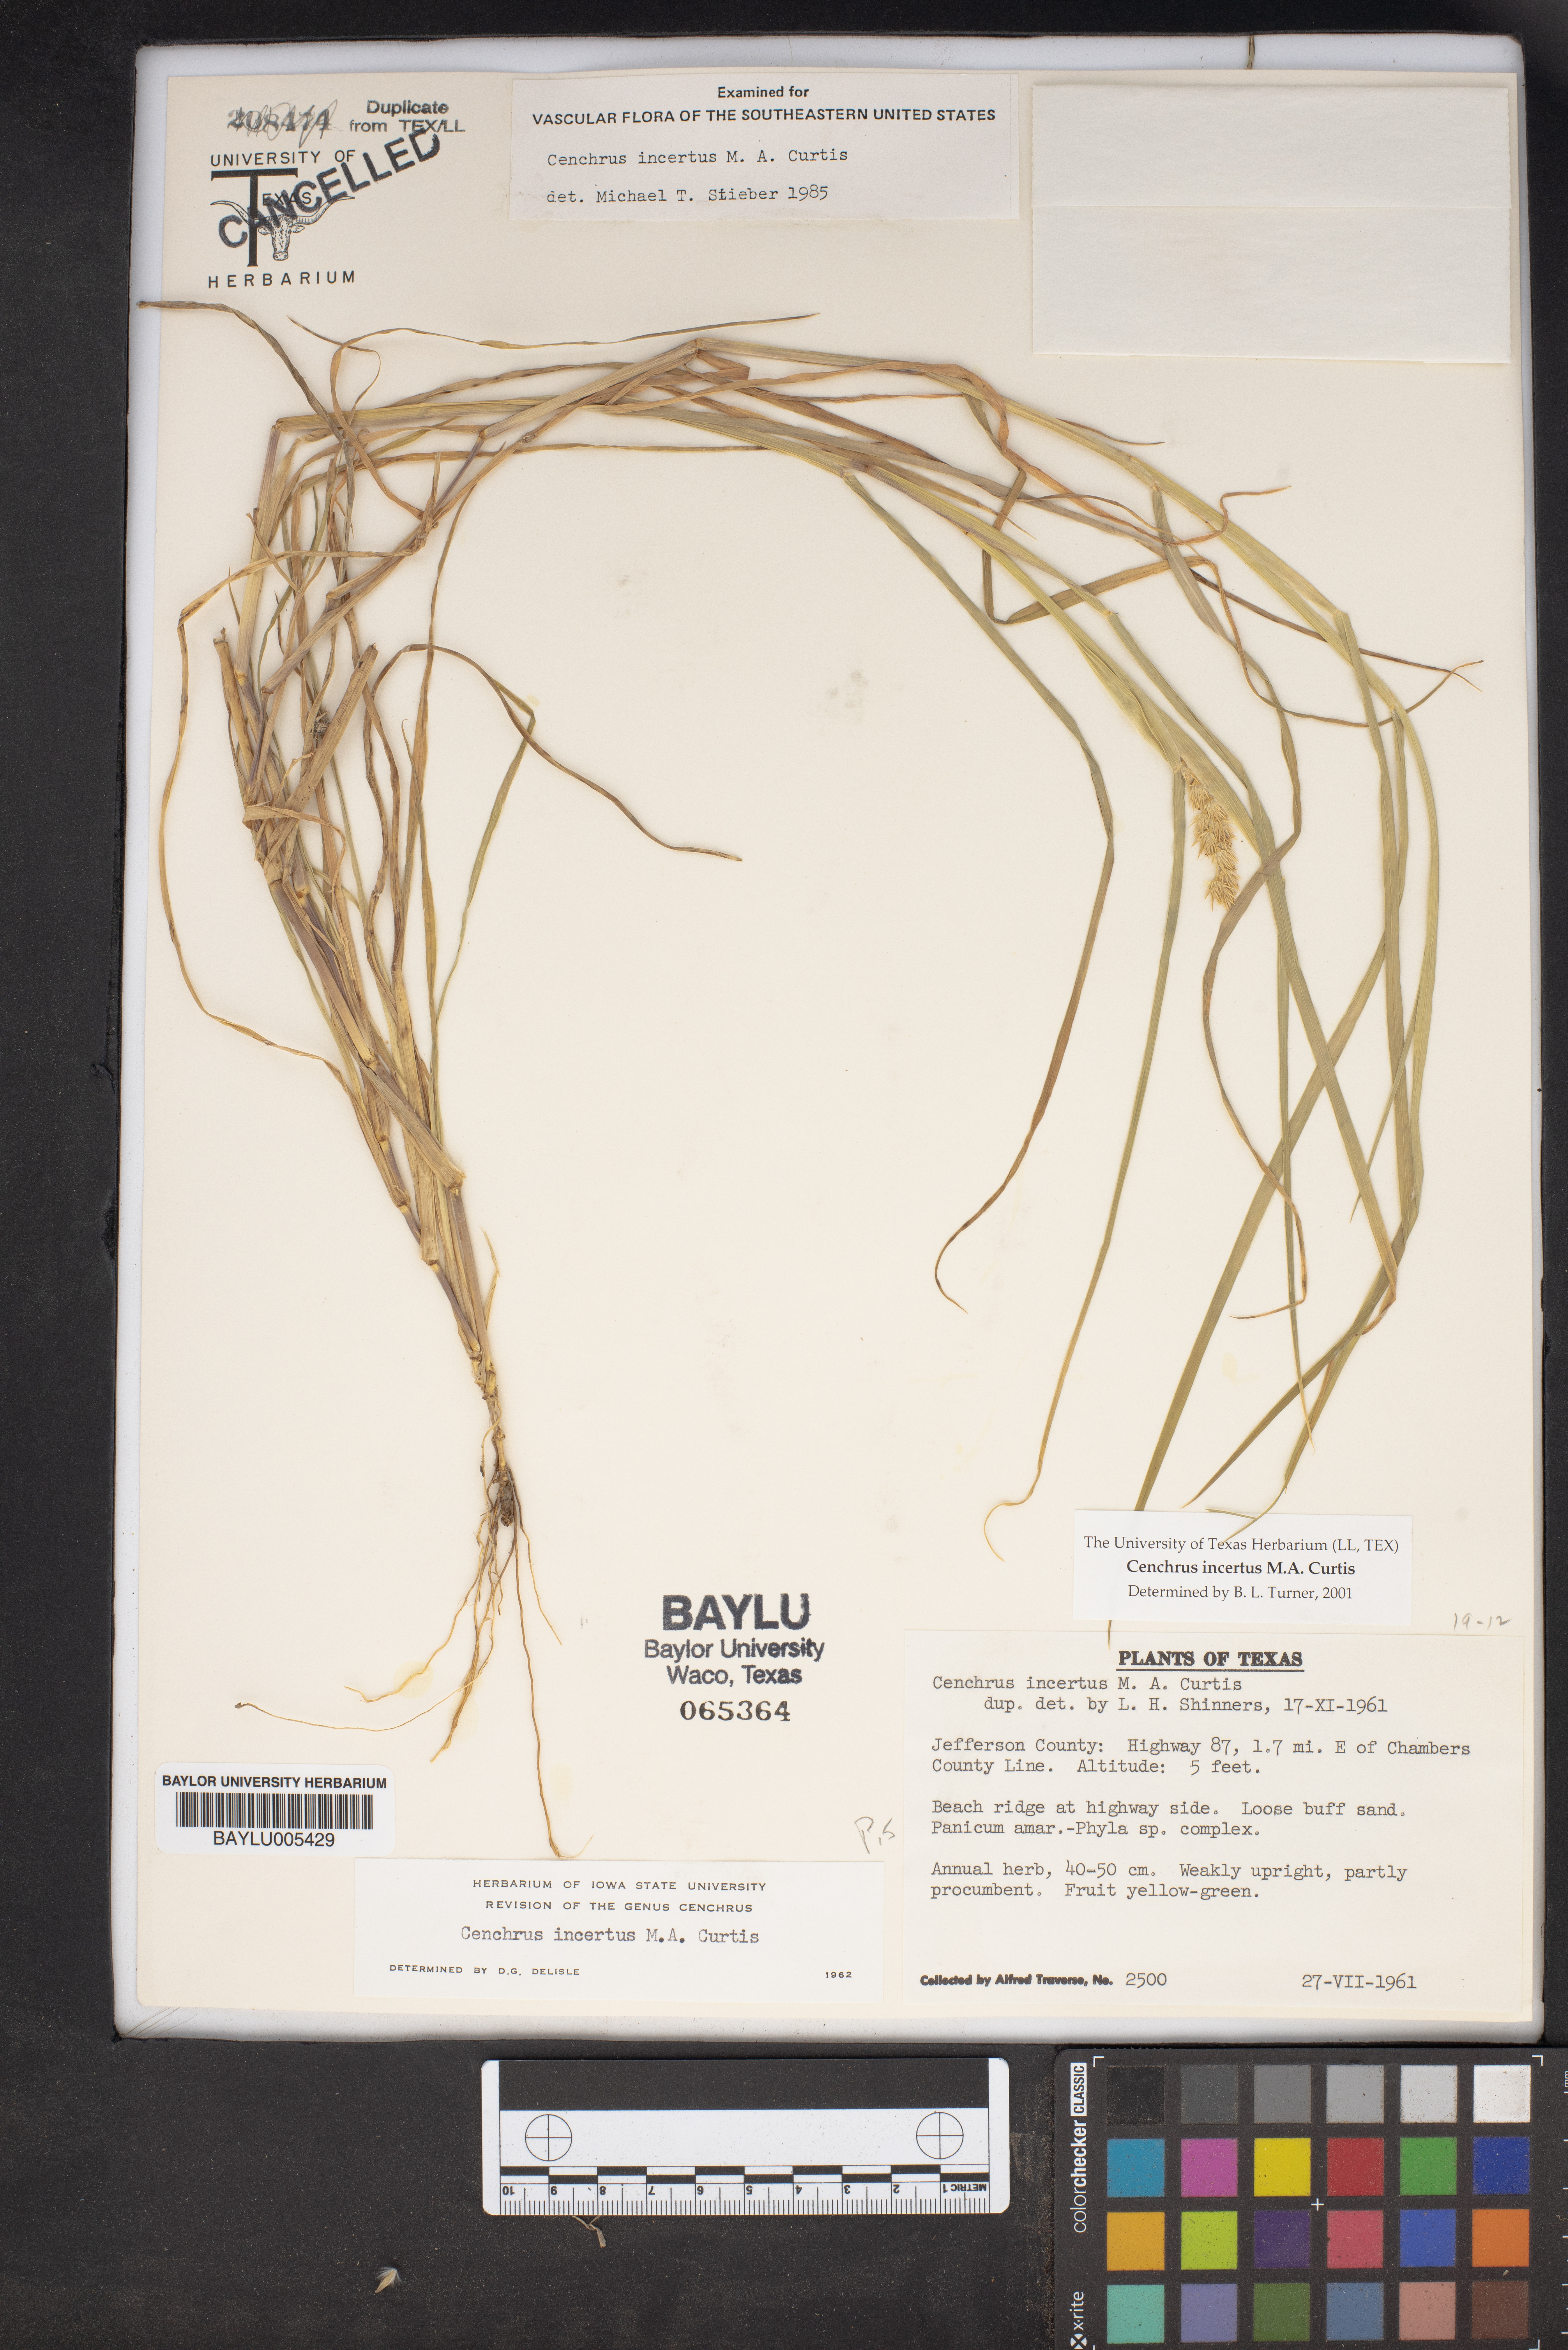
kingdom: Plantae
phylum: Tracheophyta
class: Liliopsida
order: Poales
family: Poaceae
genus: Cenchrus
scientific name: Cenchrus spinifex
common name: Coast sandbur
